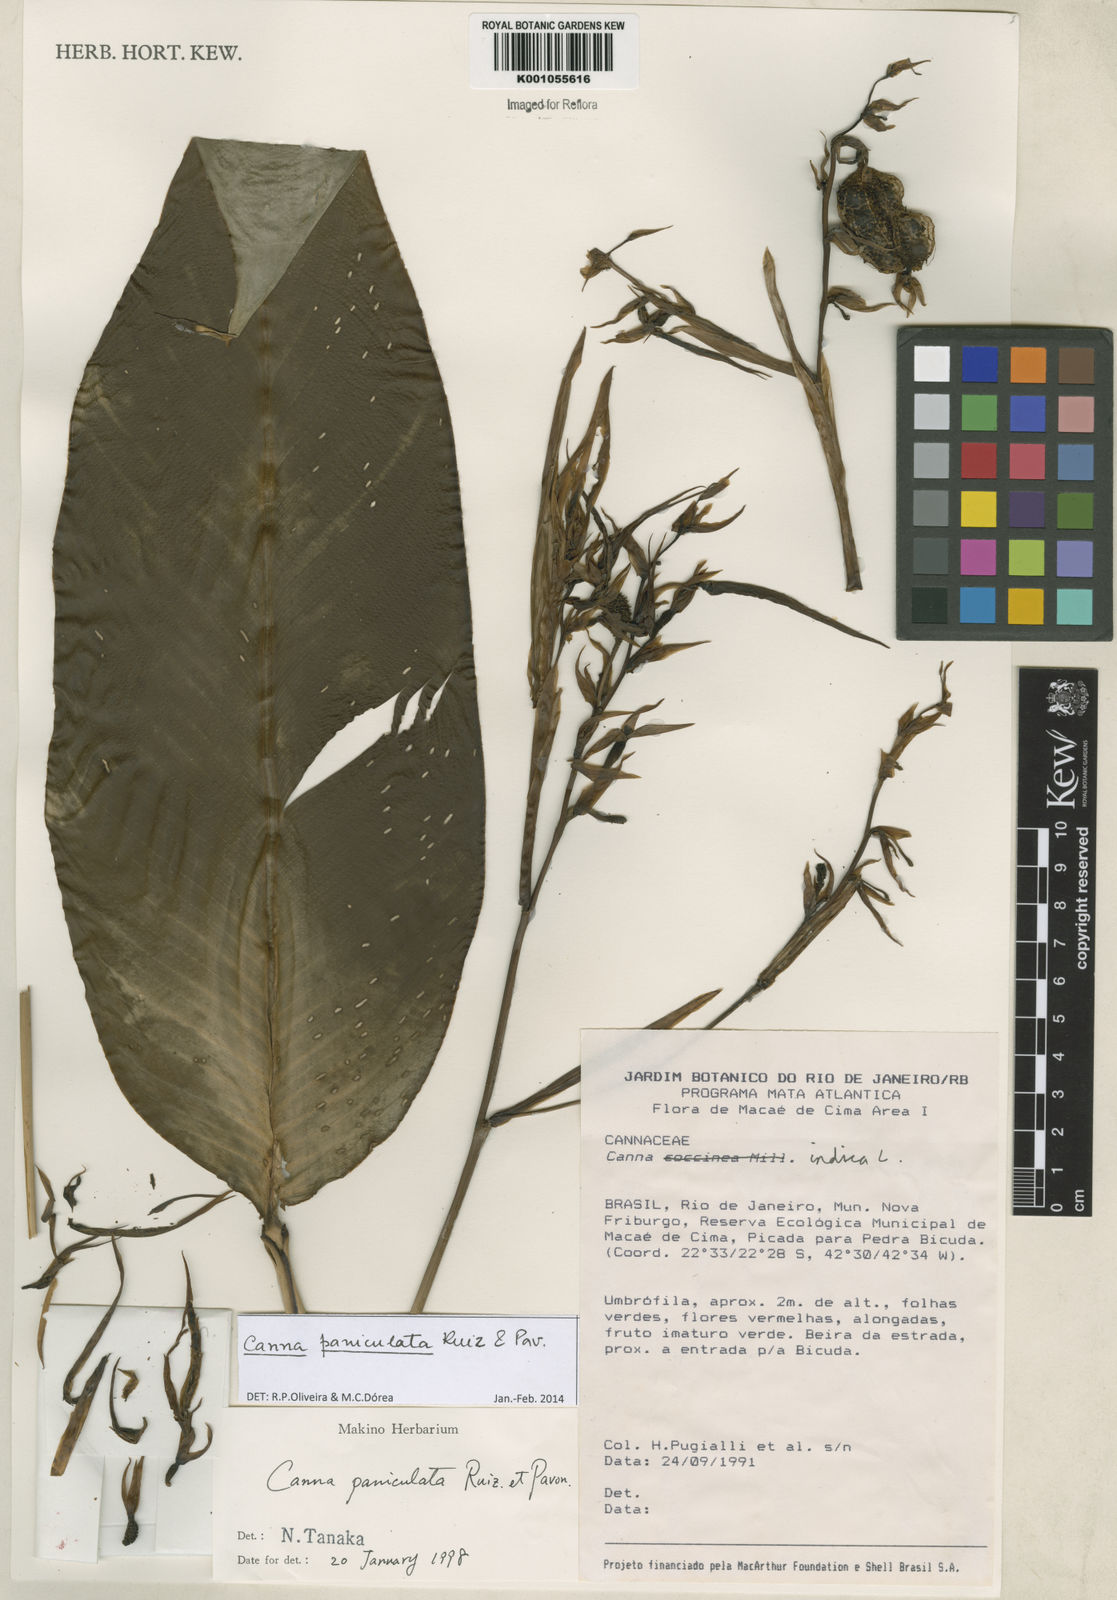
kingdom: Plantae
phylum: Tracheophyta
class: Liliopsida
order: Zingiberales
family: Cannaceae
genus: Canna
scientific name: Canna paniculata
